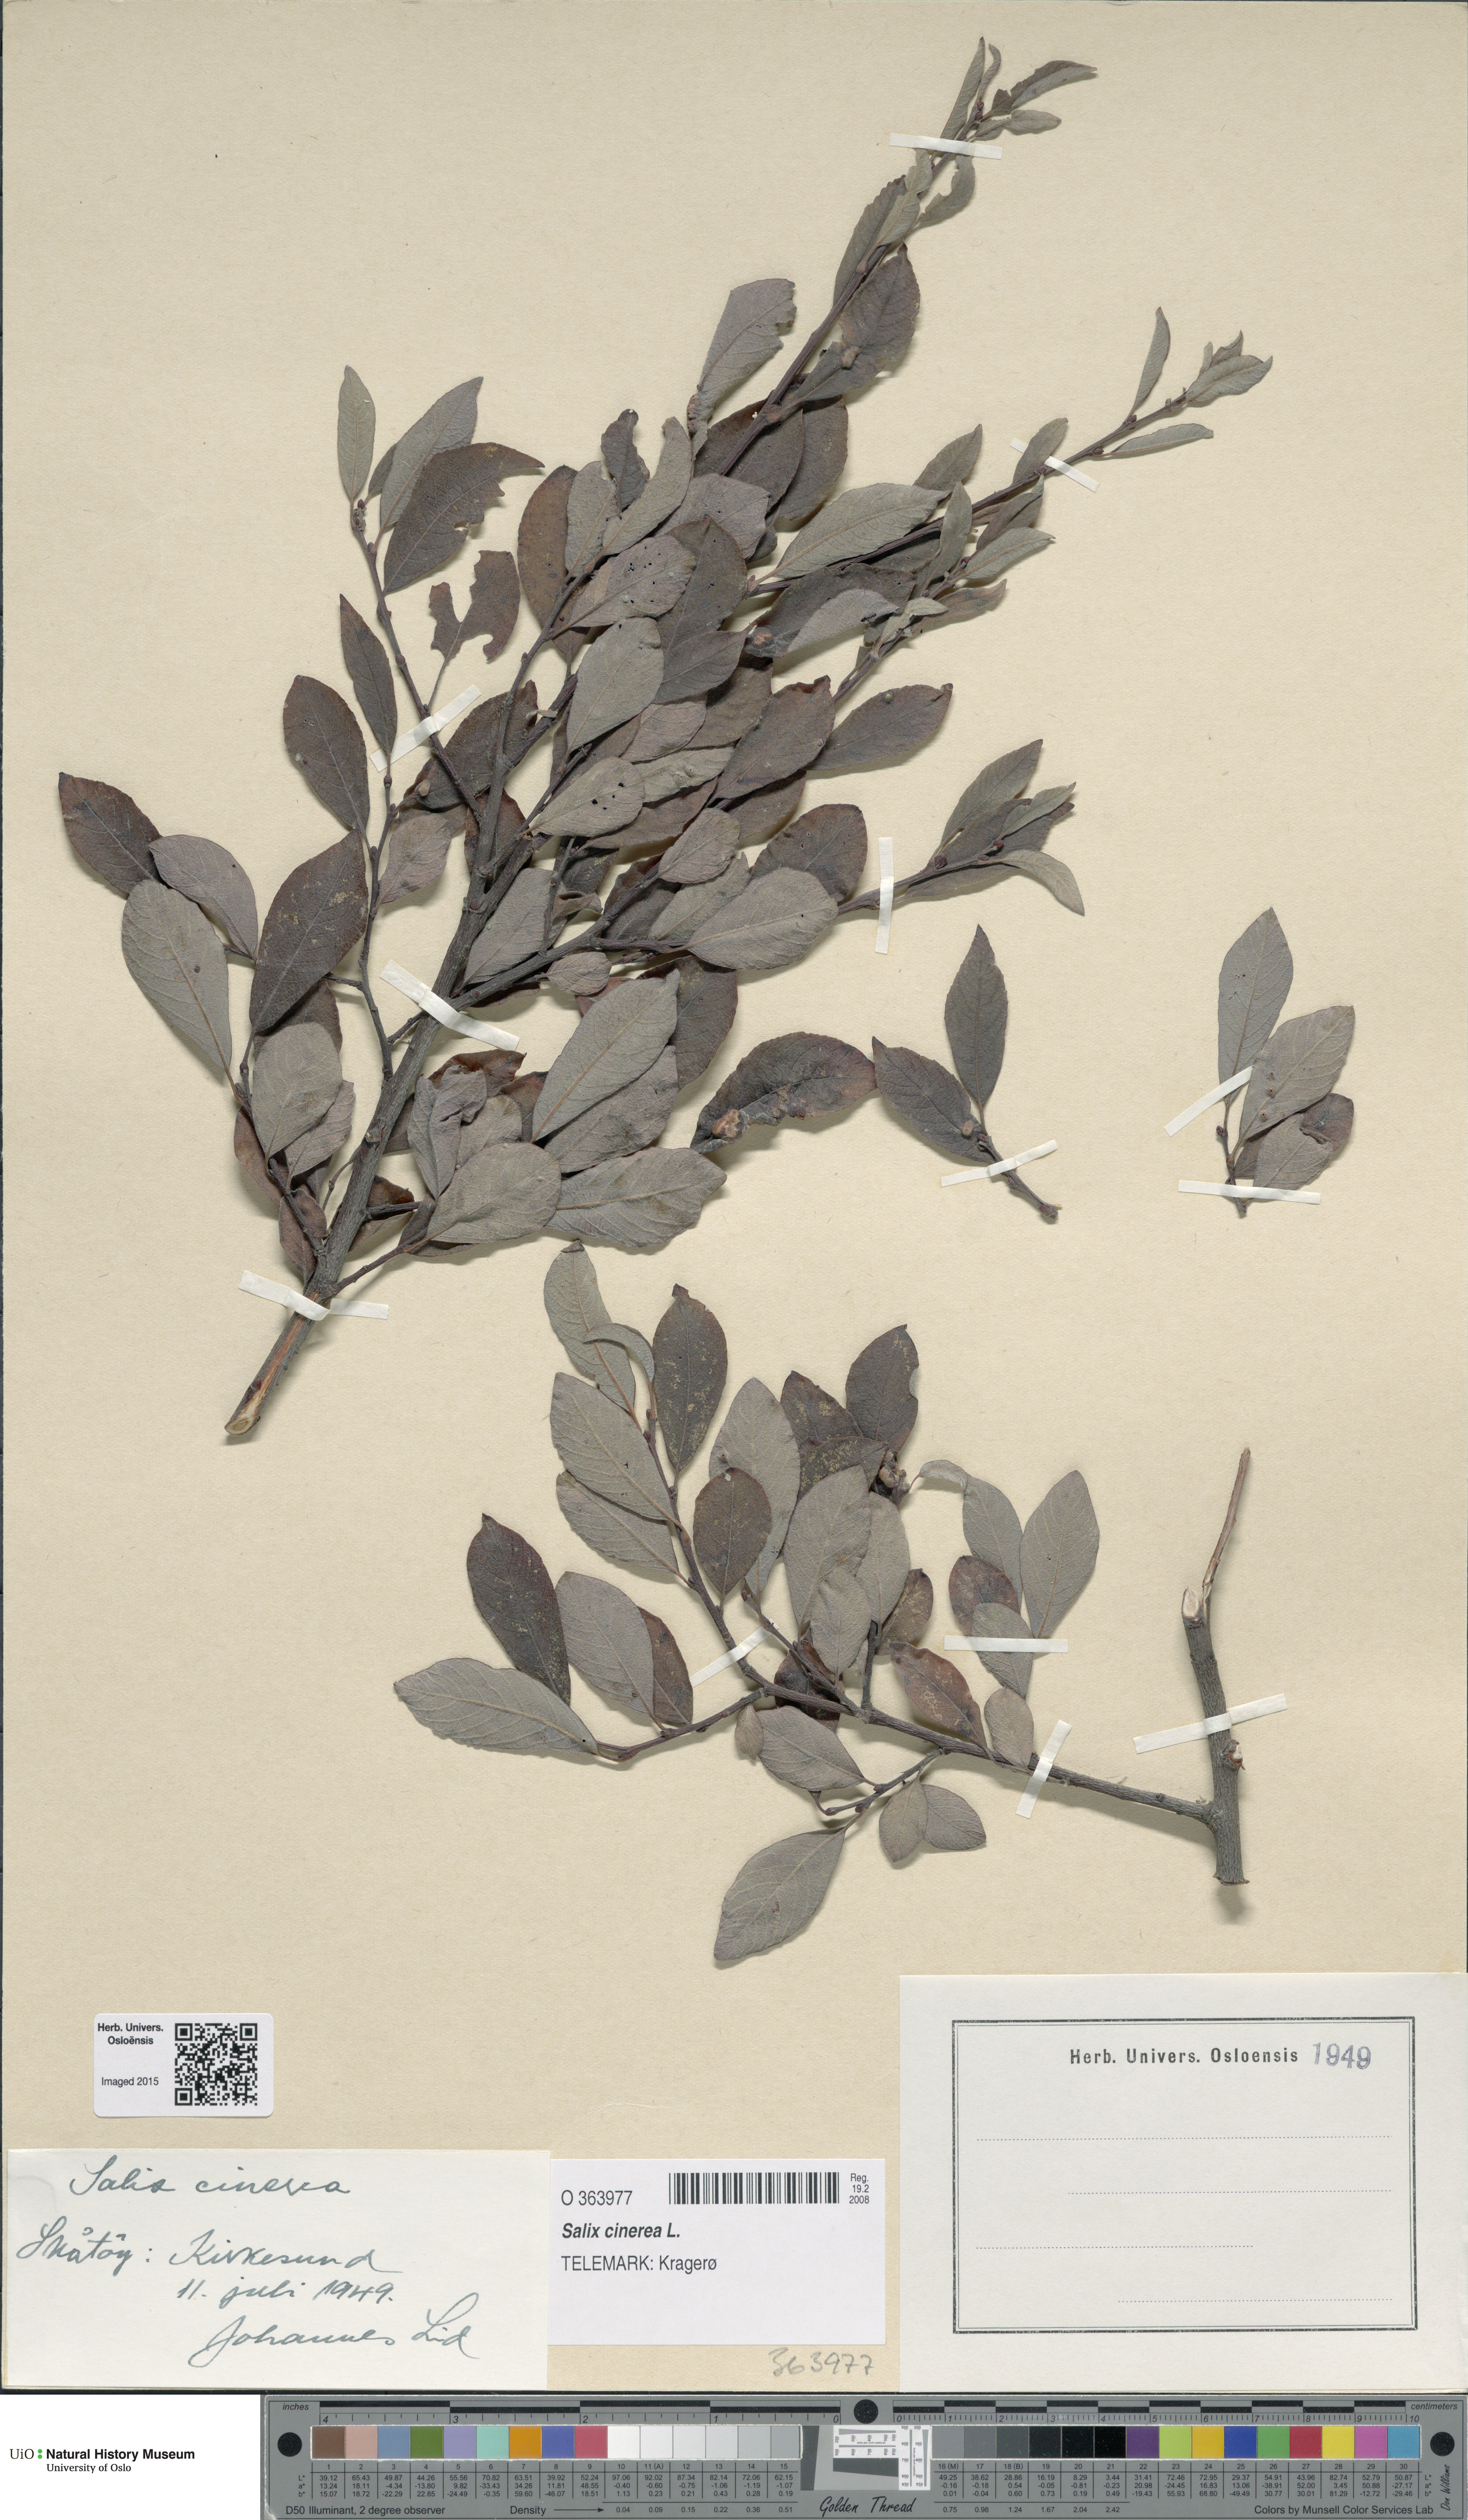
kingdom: Plantae
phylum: Tracheophyta
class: Magnoliopsida
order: Malpighiales
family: Salicaceae
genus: Salix
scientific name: Salix cinerea
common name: Common sallow
